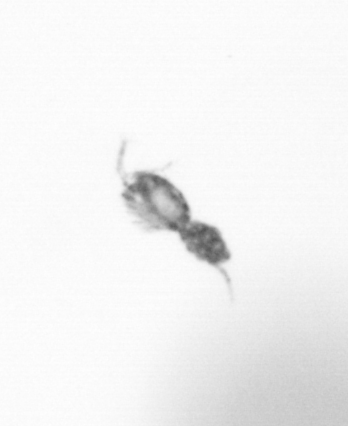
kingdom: Animalia
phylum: Arthropoda
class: Copepoda
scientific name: Copepoda
